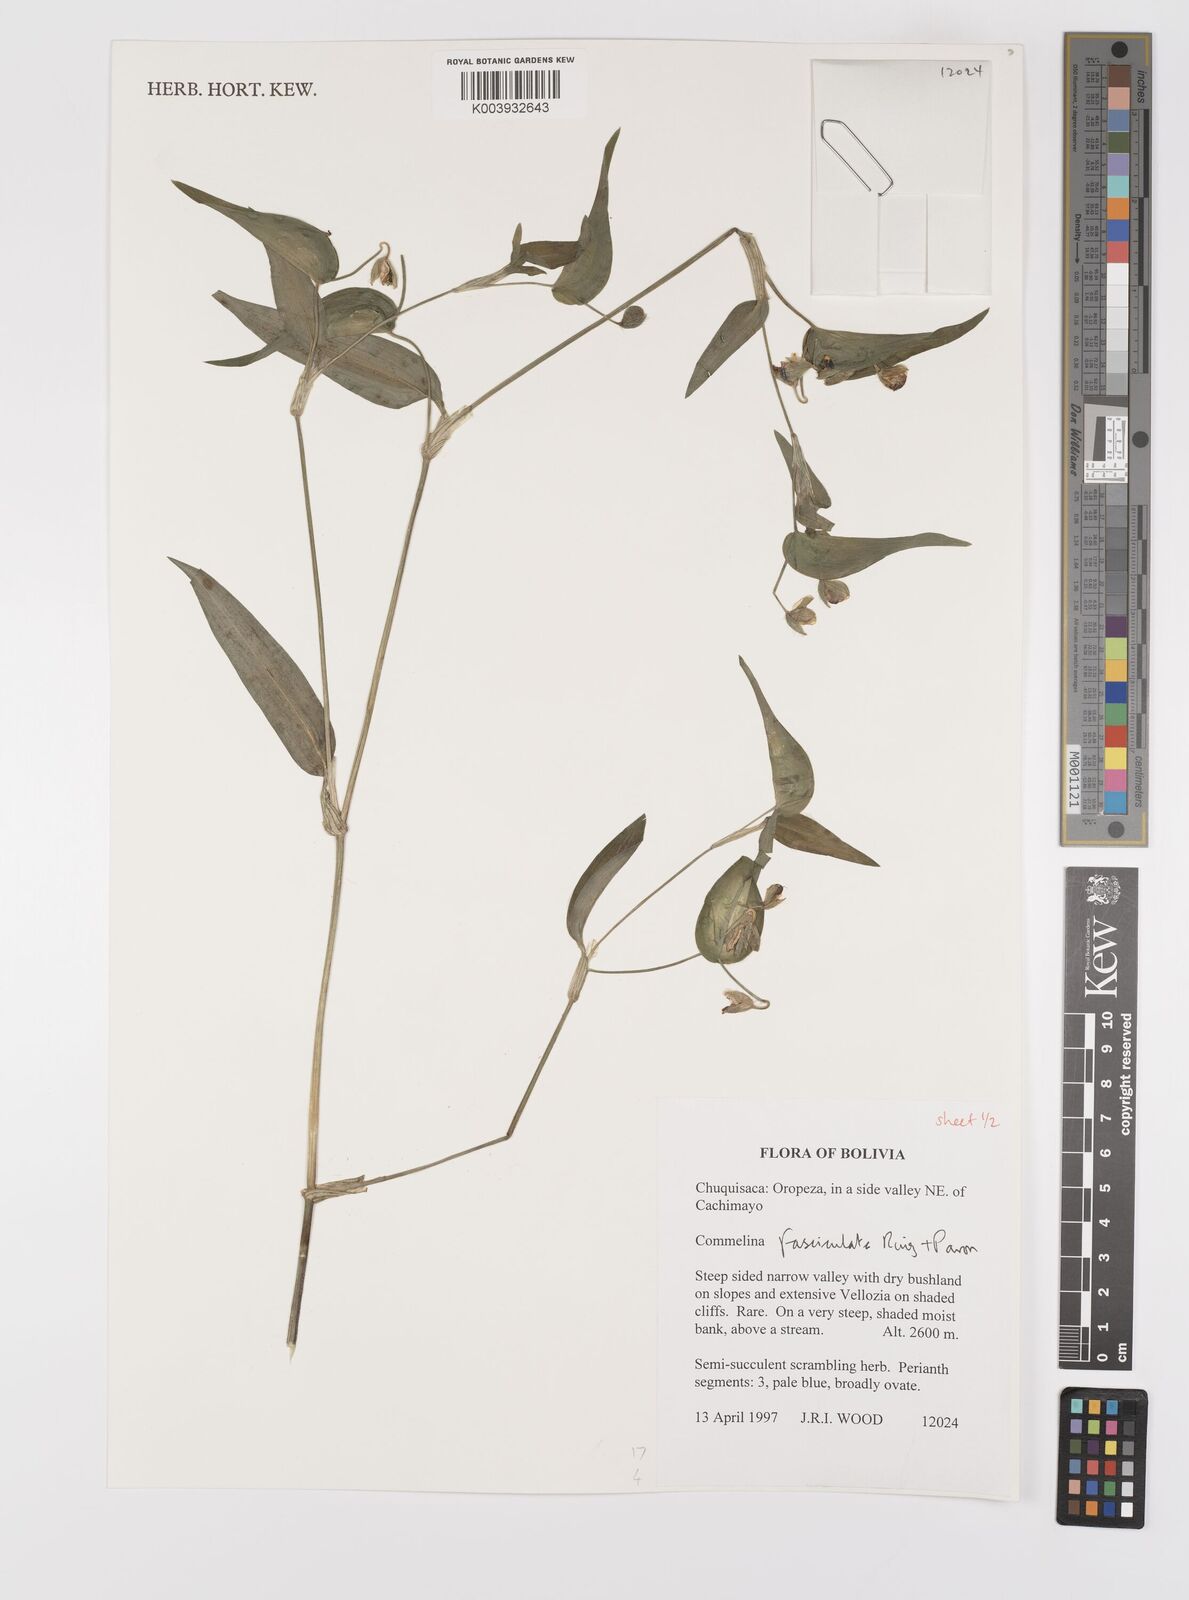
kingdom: Plantae
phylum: Tracheophyta
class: Liliopsida
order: Commelinales
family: Commelinaceae
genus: Commelina
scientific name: Commelina tuberosa
